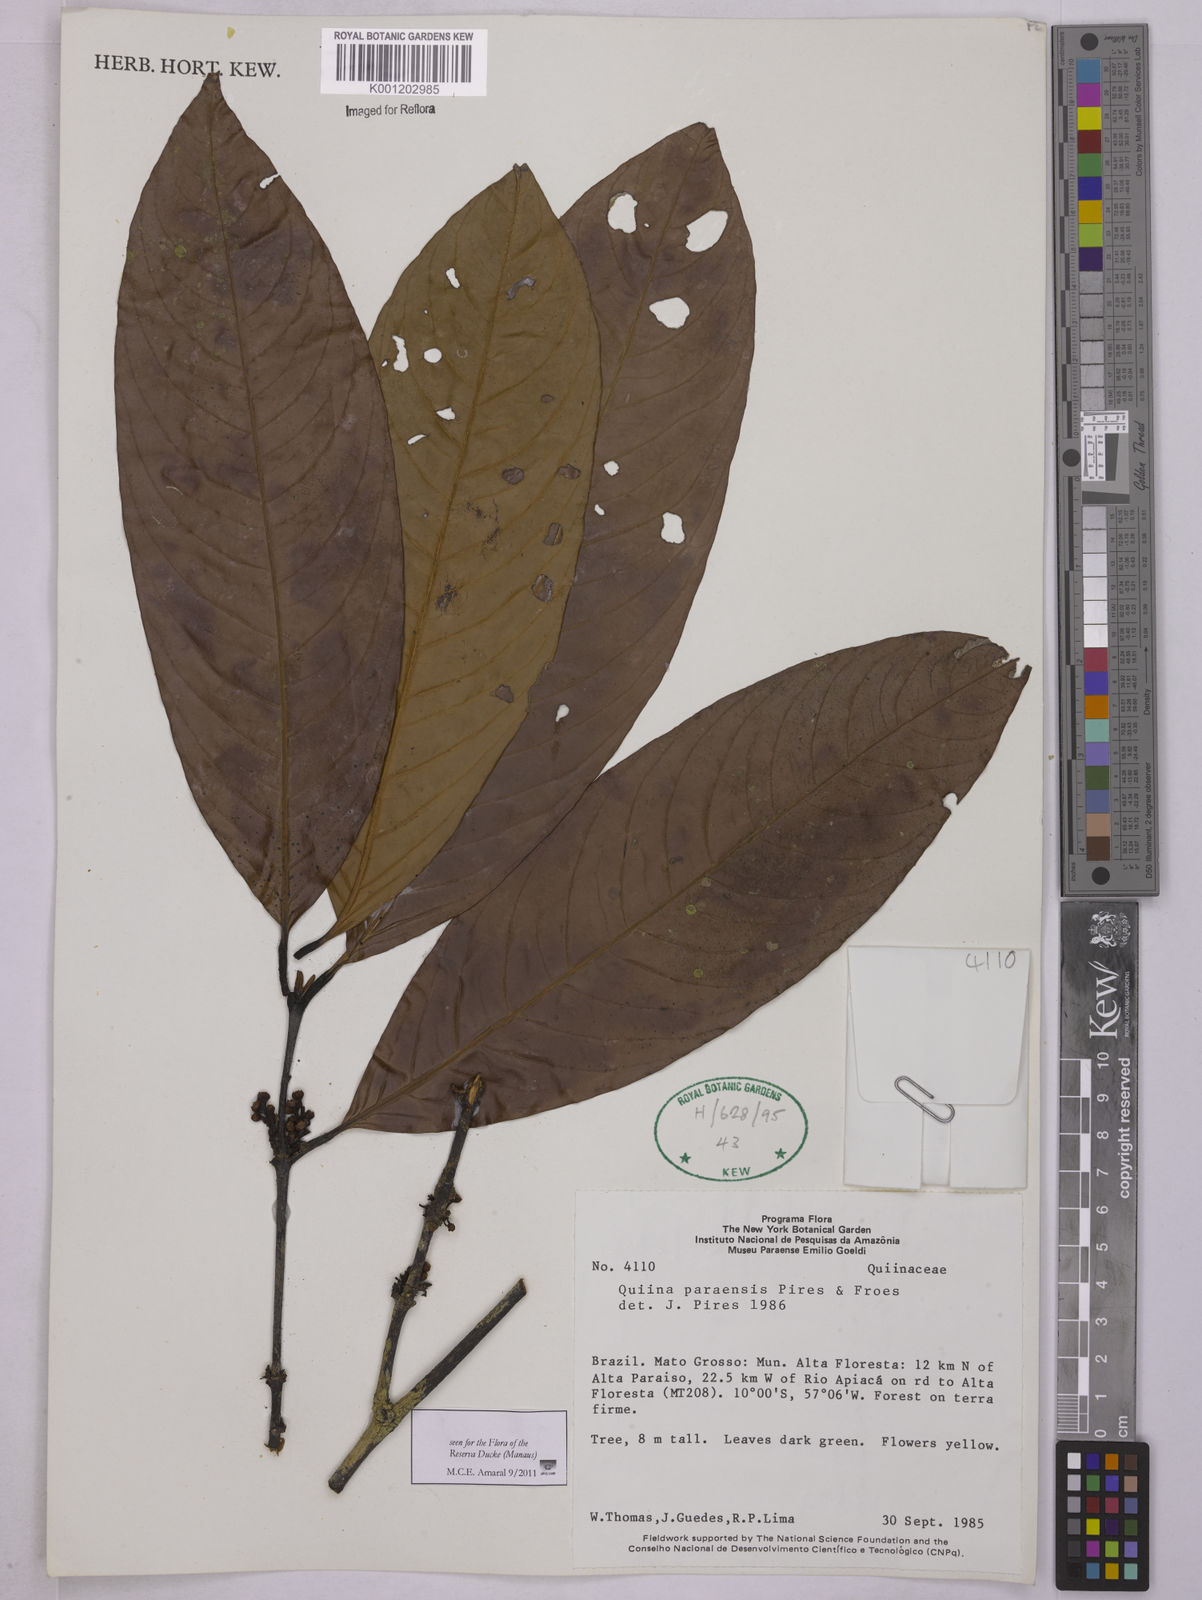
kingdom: Plantae
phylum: Tracheophyta
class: Magnoliopsida
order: Malpighiales
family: Quiinaceae
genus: Quiina
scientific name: Quiina paraensis
